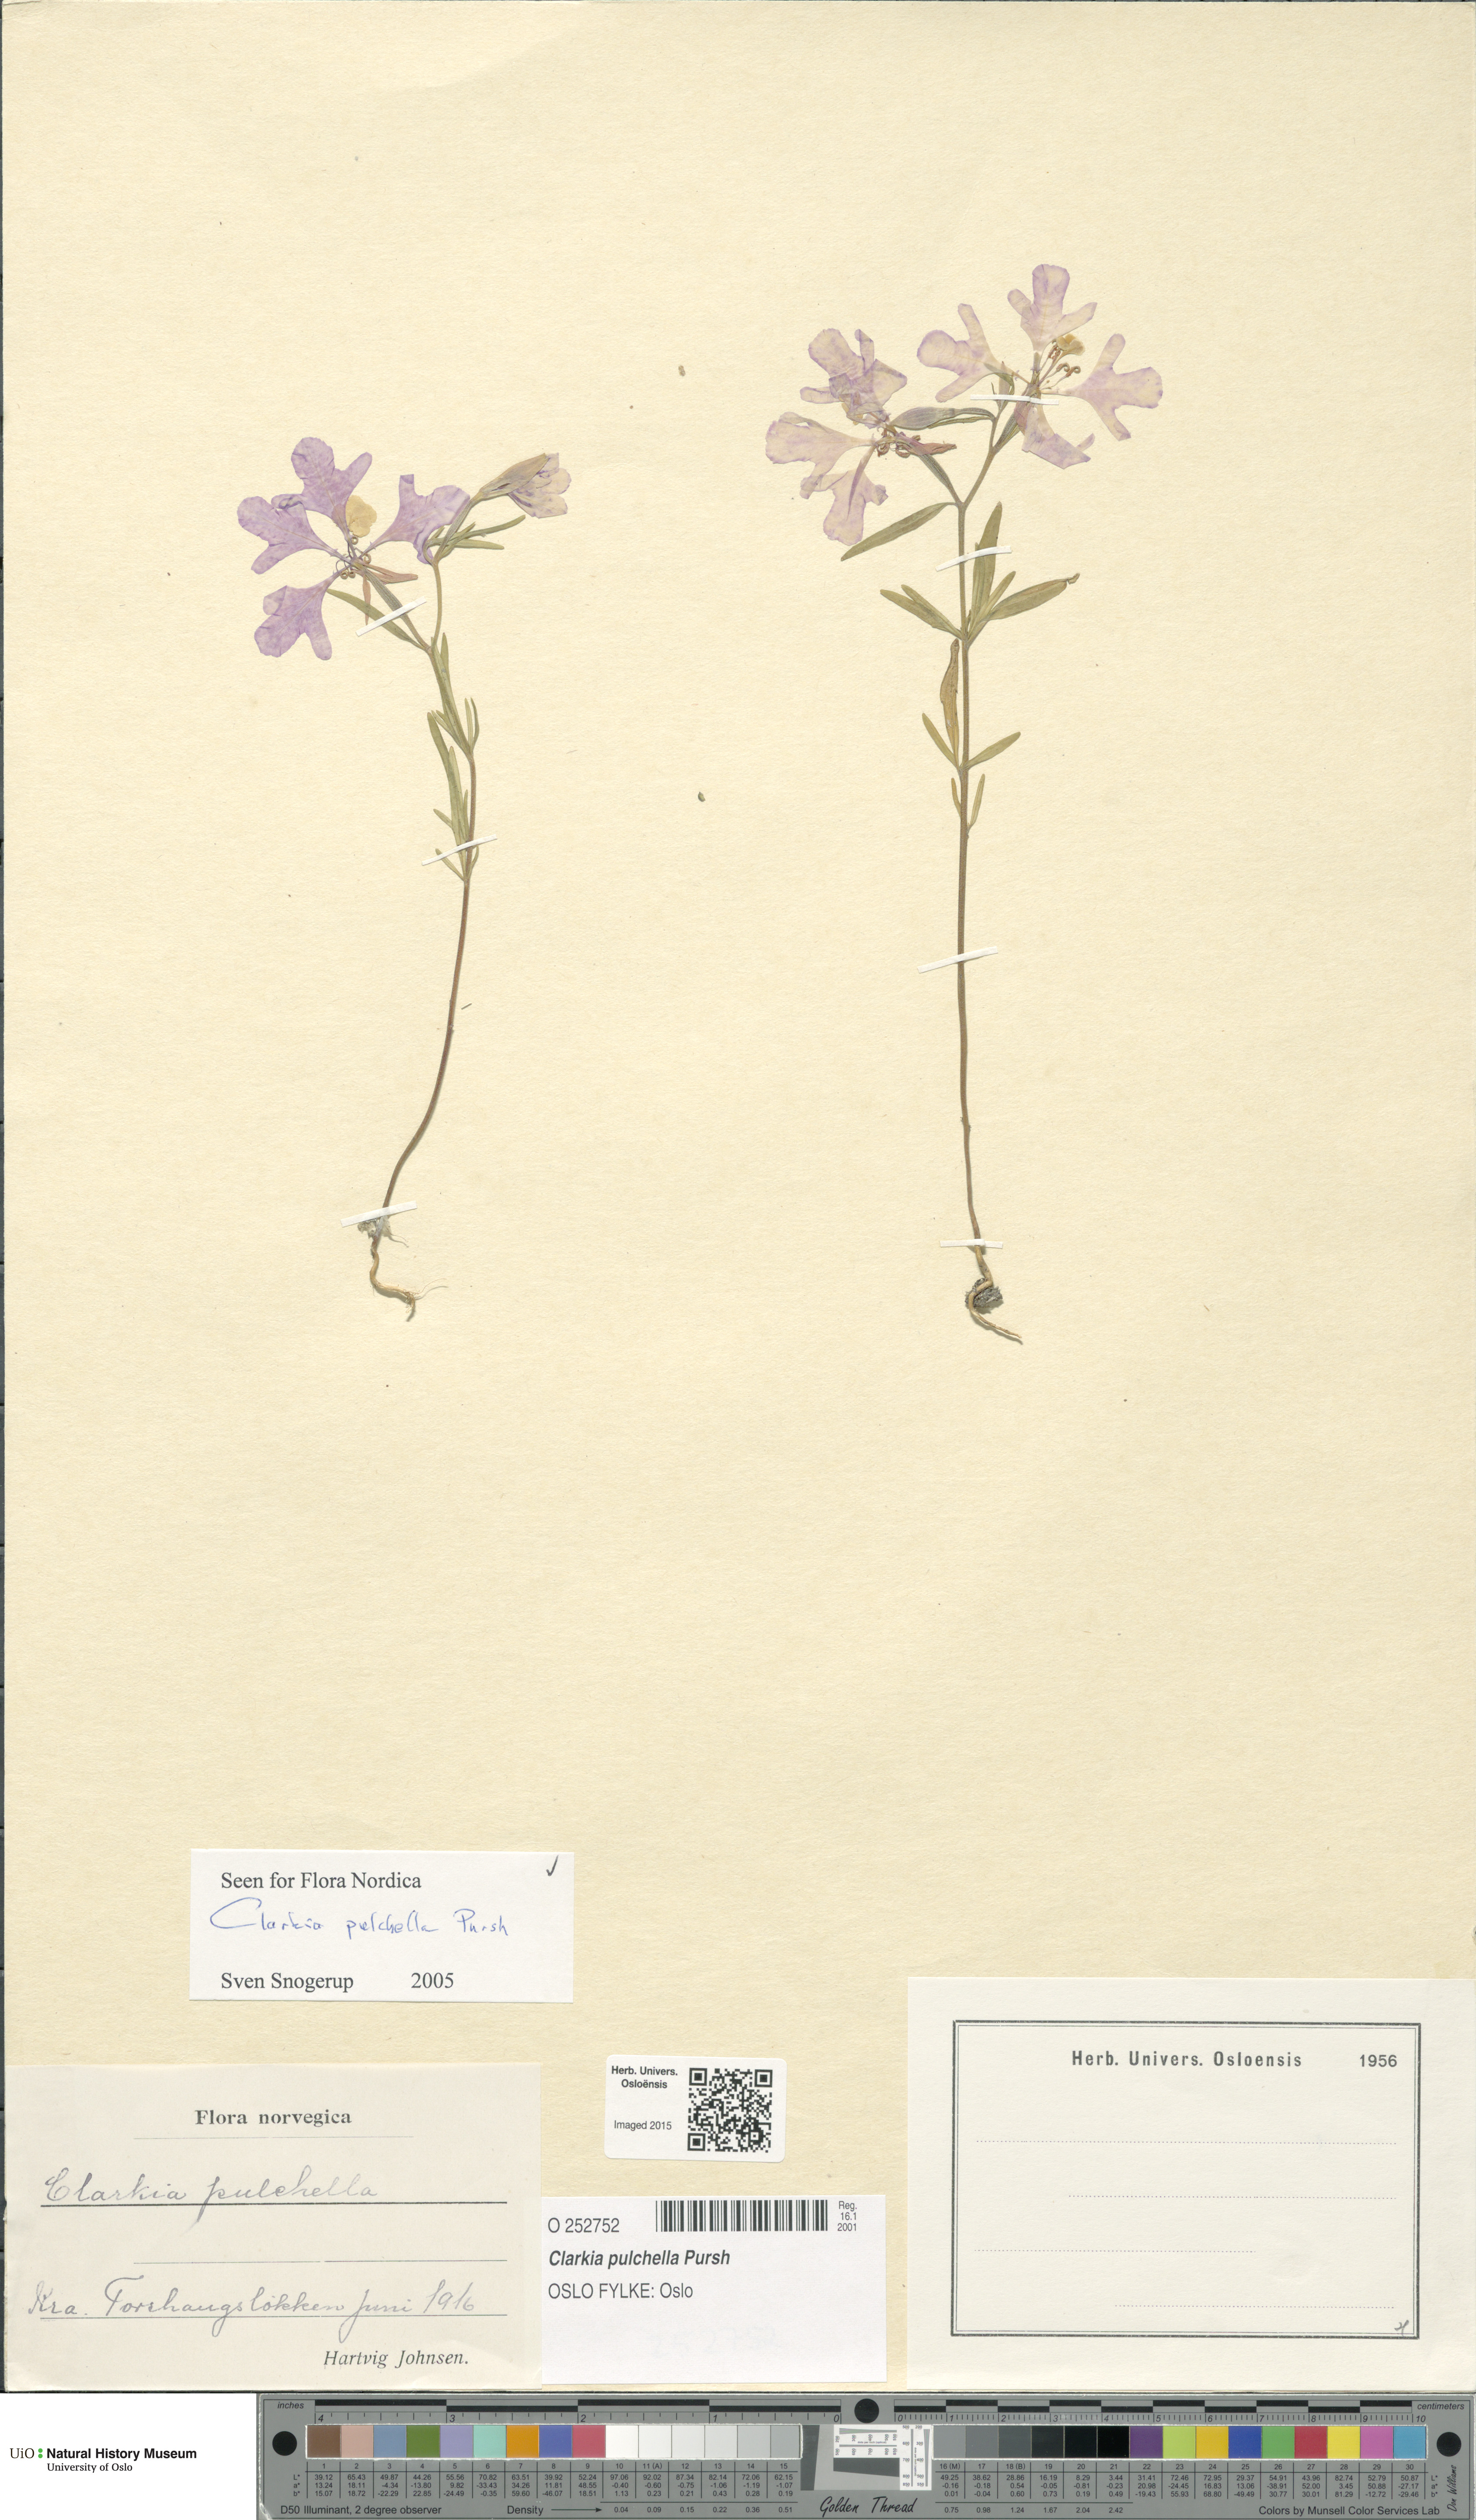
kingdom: Plantae
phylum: Tracheophyta
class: Magnoliopsida
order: Myrtales
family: Onagraceae
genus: Clarkia
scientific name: Clarkia pulchella
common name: Deer horn
